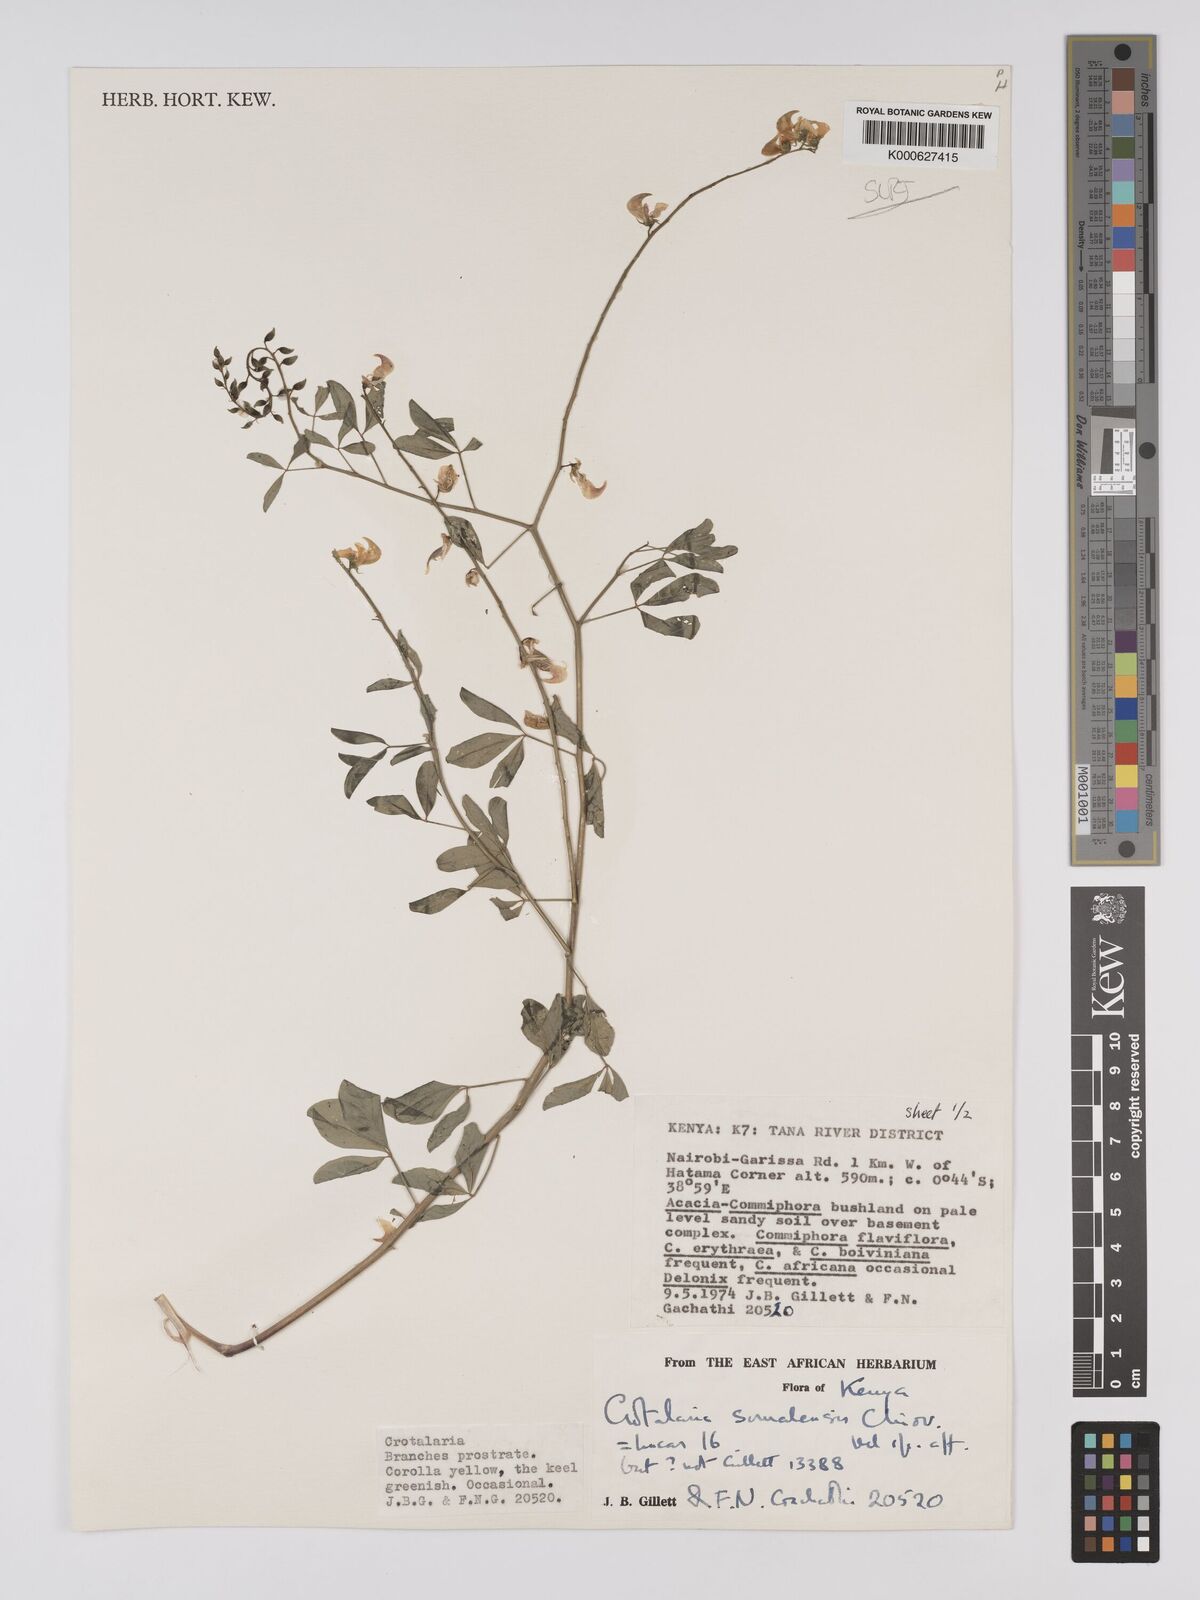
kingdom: Plantae
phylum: Tracheophyta
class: Magnoliopsida
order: Fabales
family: Fabaceae
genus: Crotalaria
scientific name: Crotalaria somalensis
